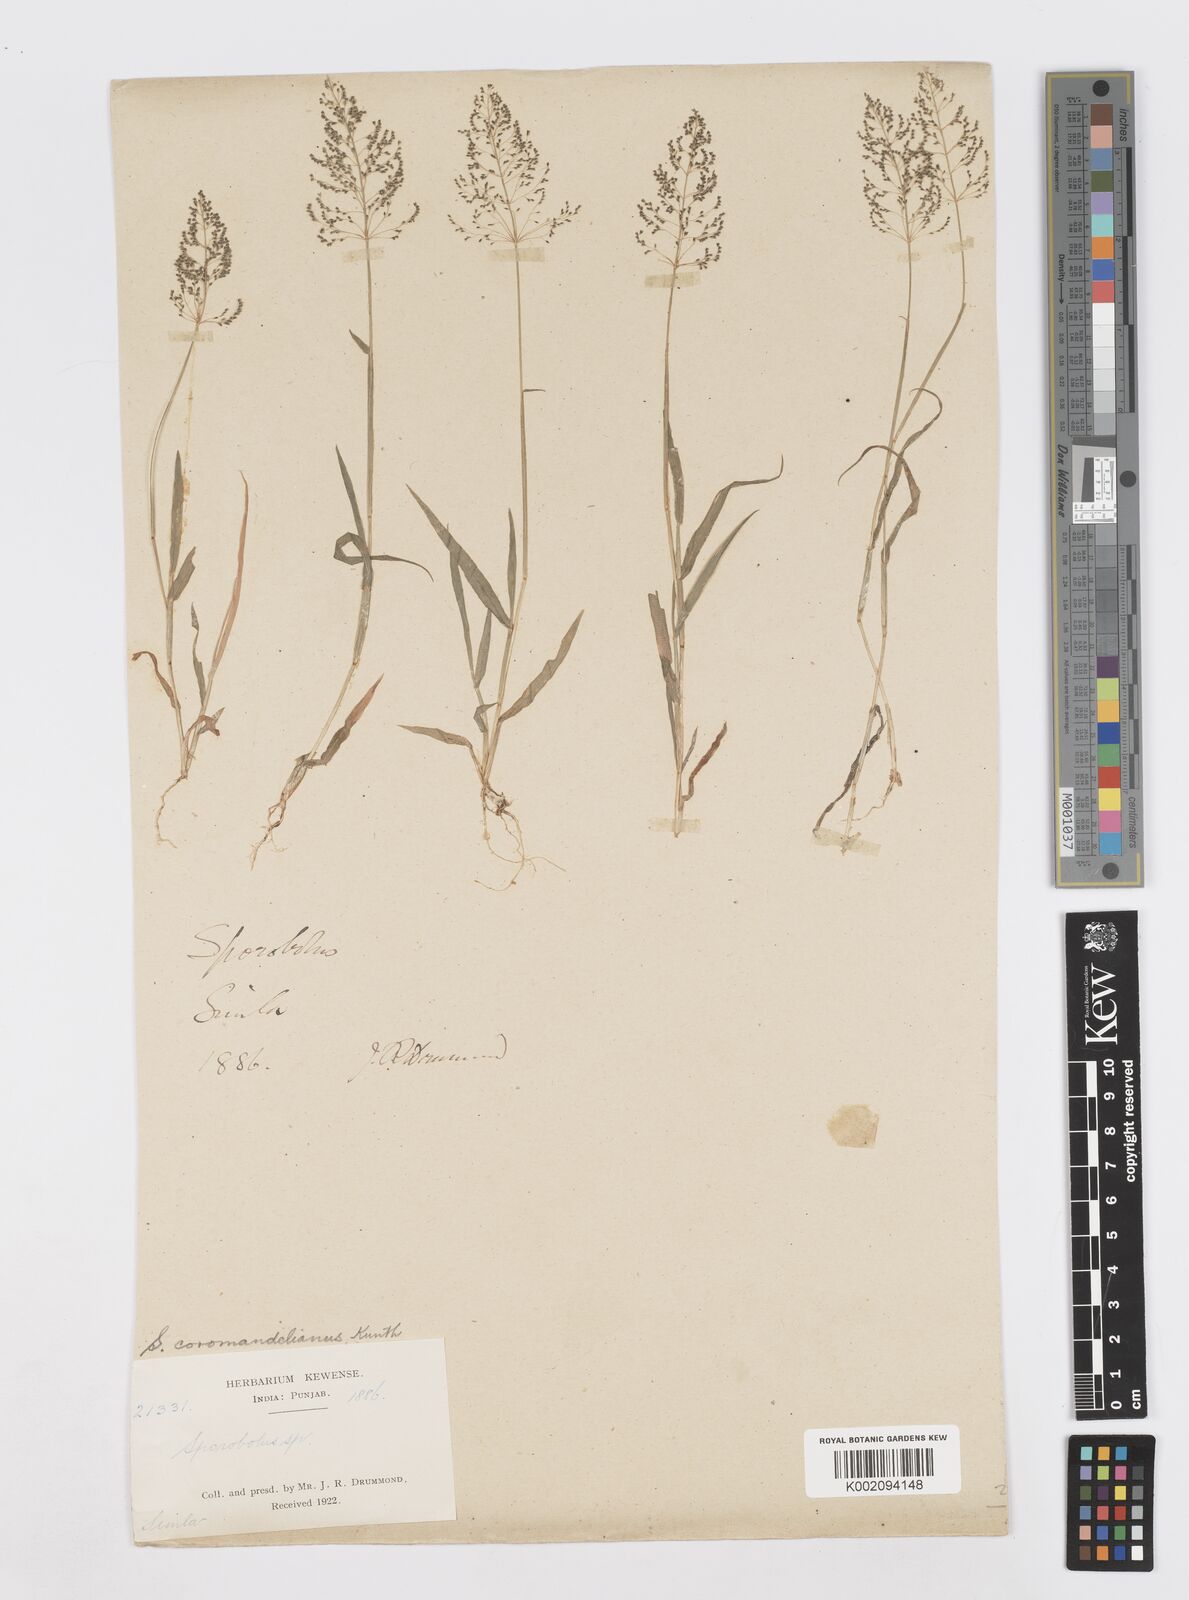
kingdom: Plantae
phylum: Tracheophyta
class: Liliopsida
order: Poales
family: Poaceae
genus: Sporobolus
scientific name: Sporobolus coromandelianus
